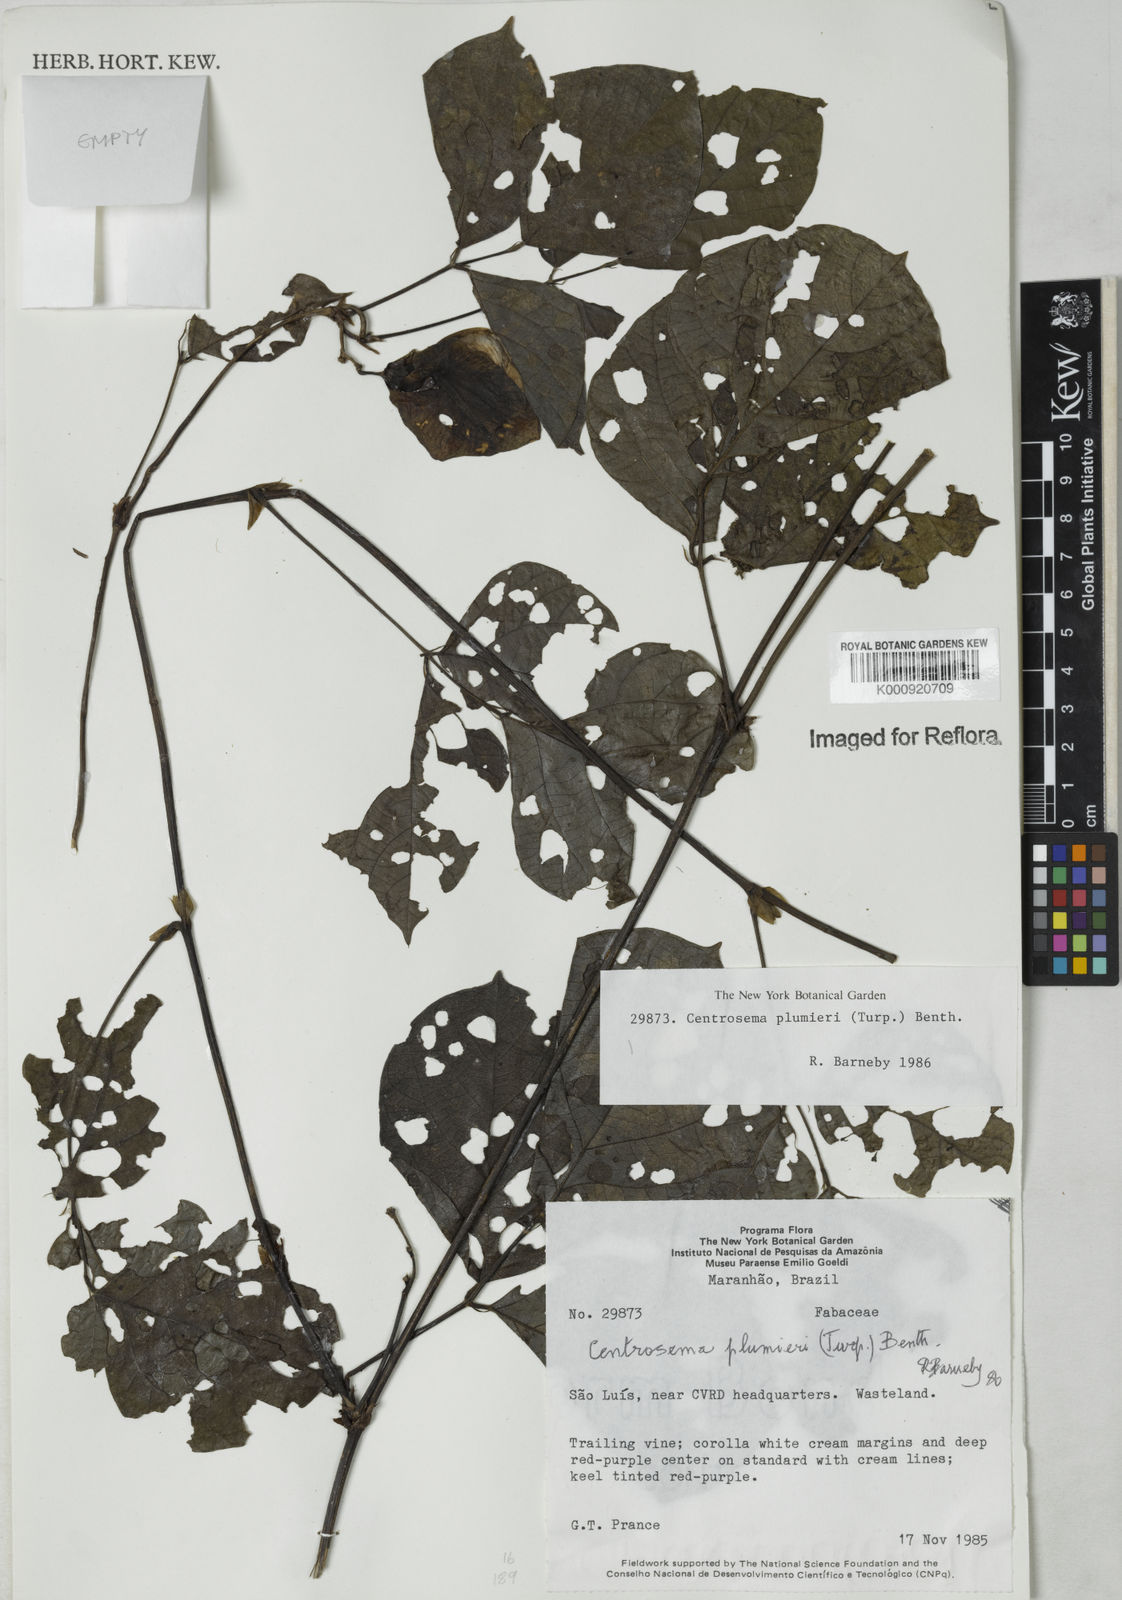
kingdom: Plantae
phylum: Tracheophyta
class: Magnoliopsida
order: Fabales
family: Fabaceae
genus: Centrosema
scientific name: Centrosema plumieri
